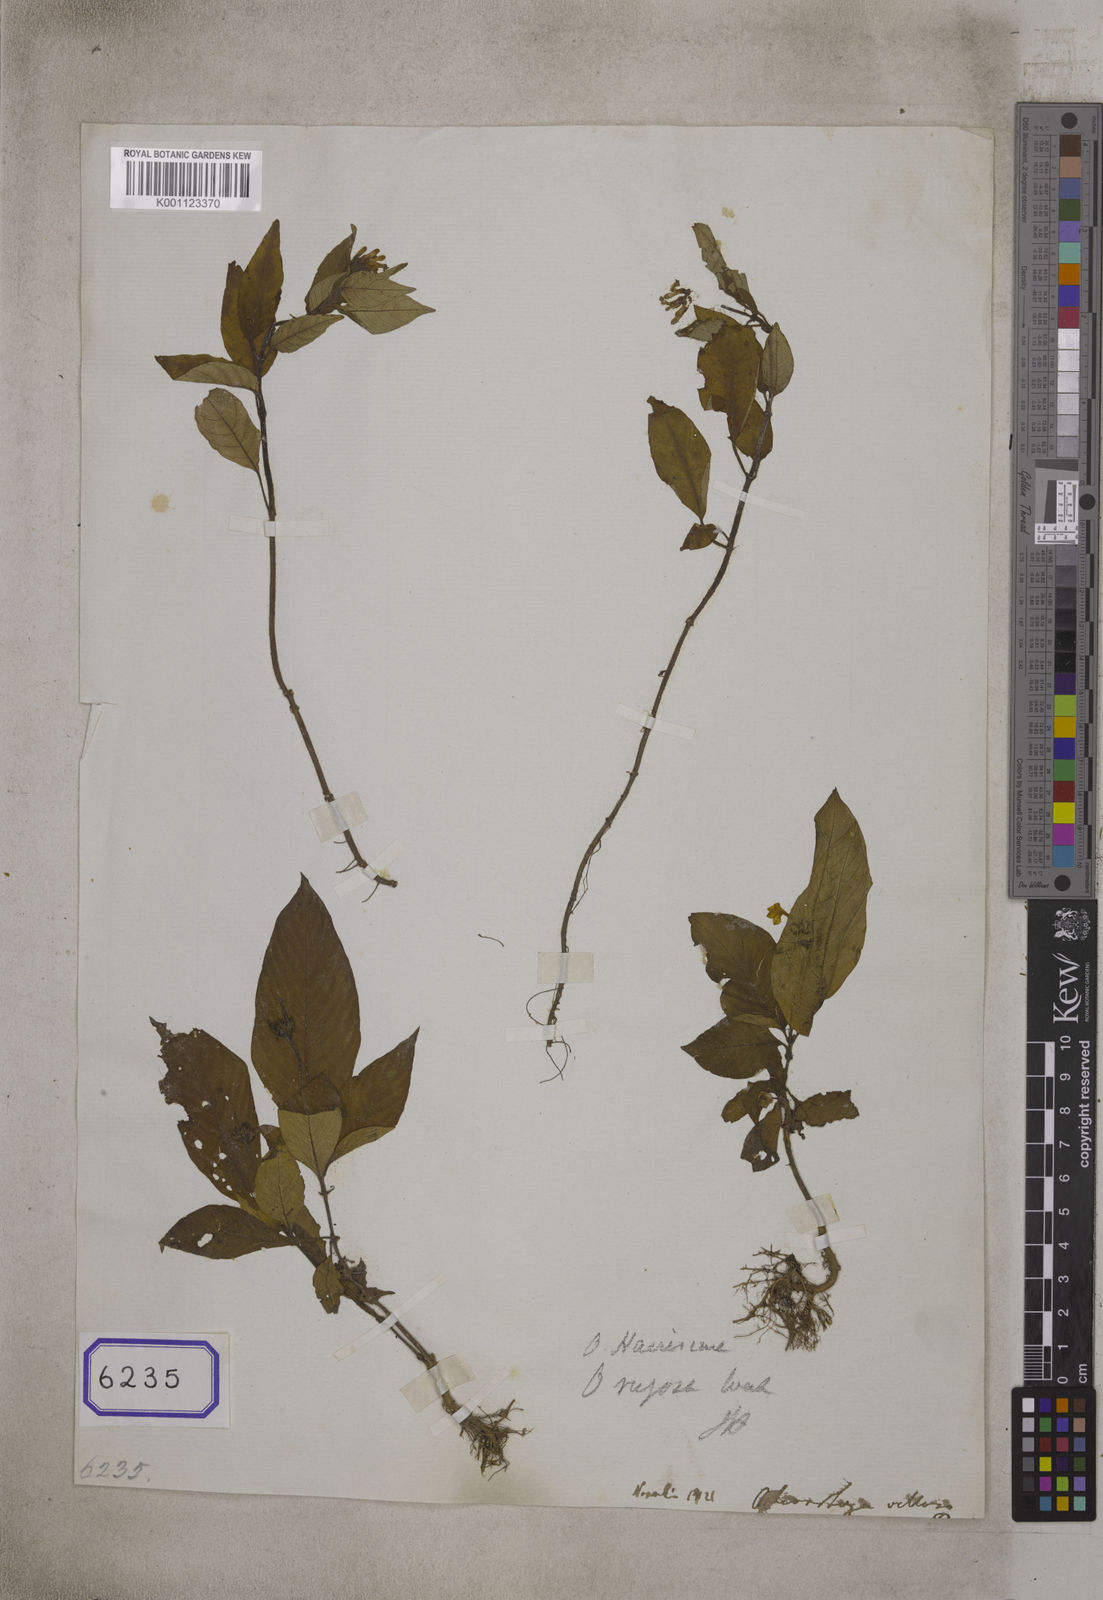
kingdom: Plantae
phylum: Tracheophyta
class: Magnoliopsida
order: Gentianales
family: Rubiaceae
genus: Ophiorrhiza
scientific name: Ophiorrhiza rugosa
